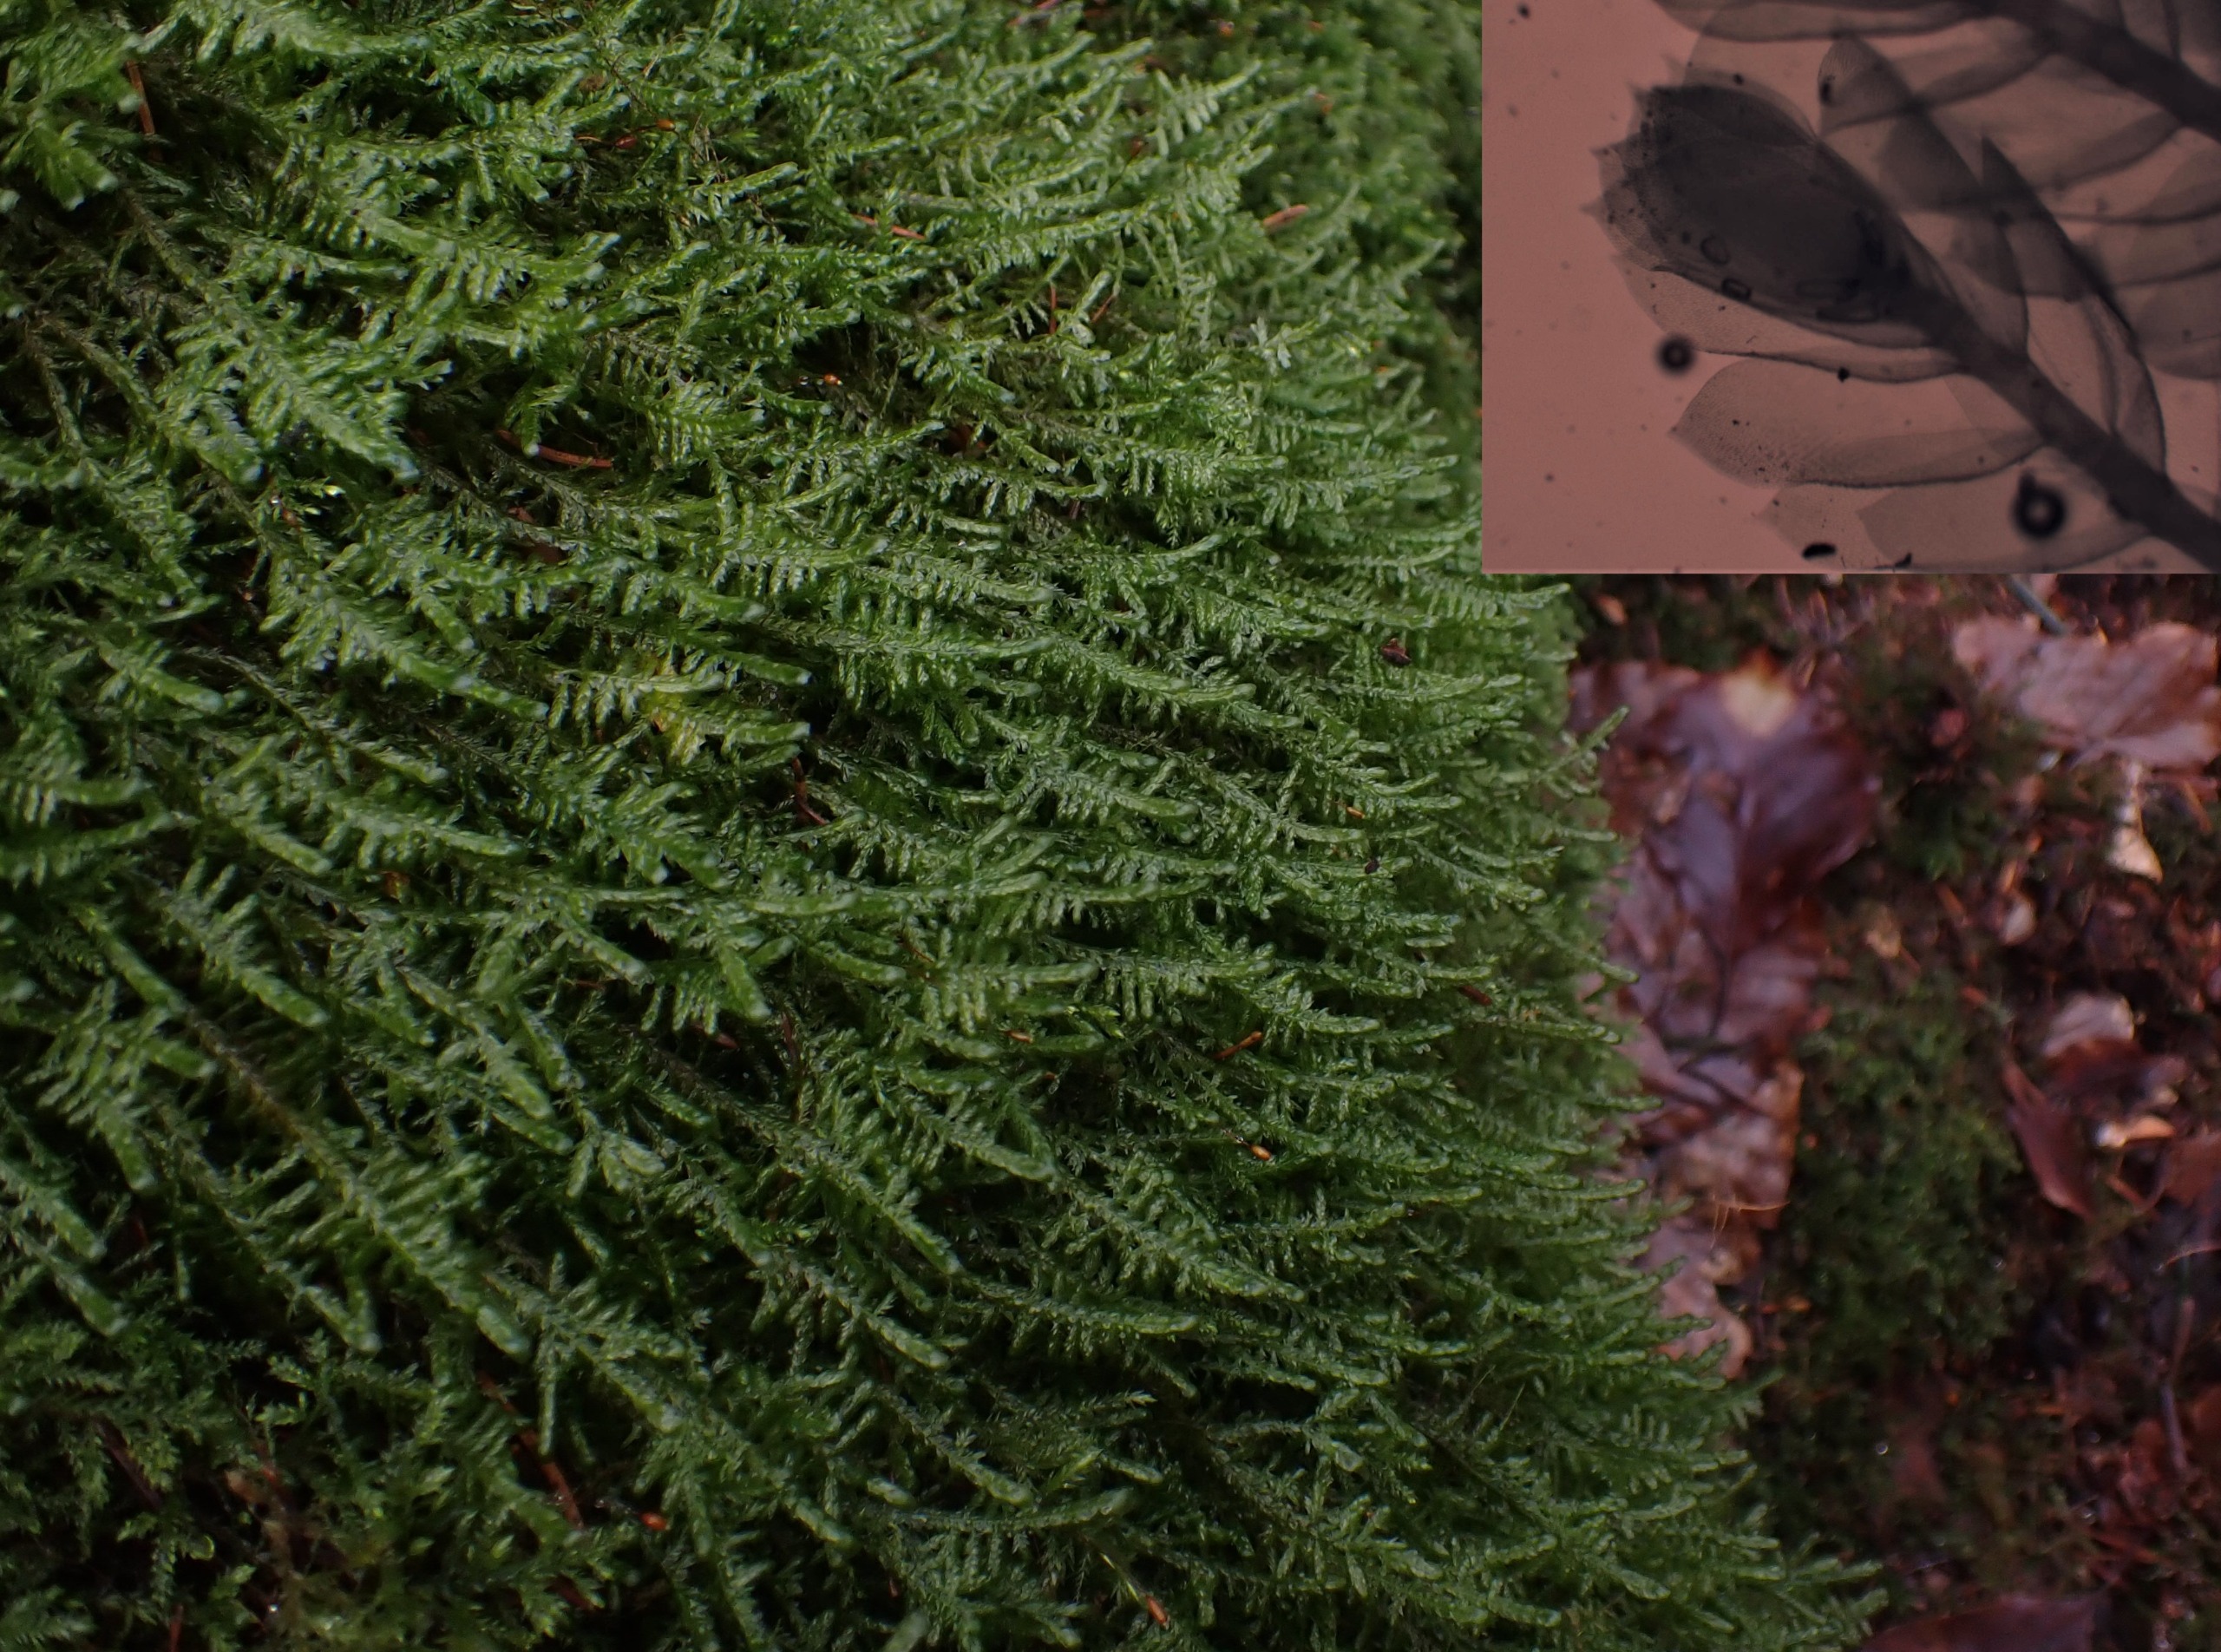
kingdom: Plantae
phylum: Bryophyta
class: Bryopsida
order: Hypnales
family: Neckeraceae
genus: Alleniella
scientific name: Alleniella complanata
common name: Almindelig fladmos
